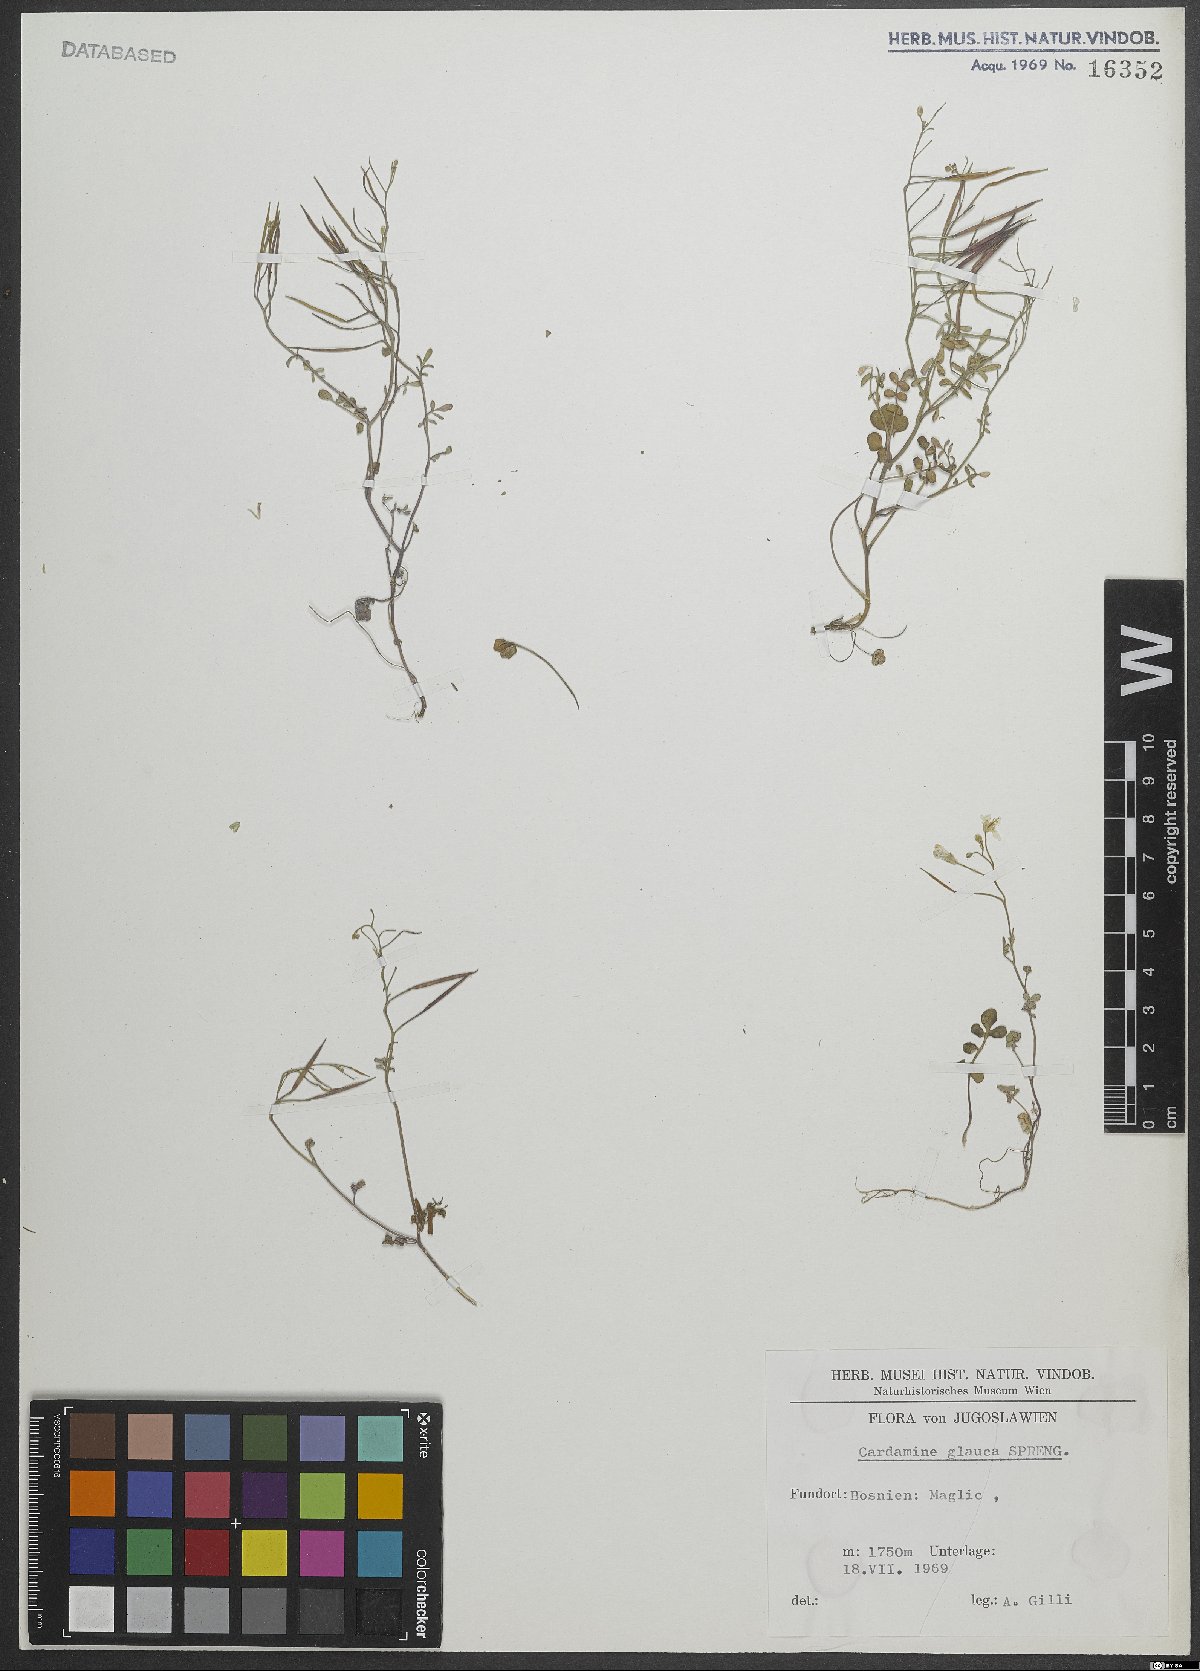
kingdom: Plantae
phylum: Tracheophyta
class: Magnoliopsida
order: Brassicales
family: Brassicaceae
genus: Cardamine
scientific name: Cardamine glauca
